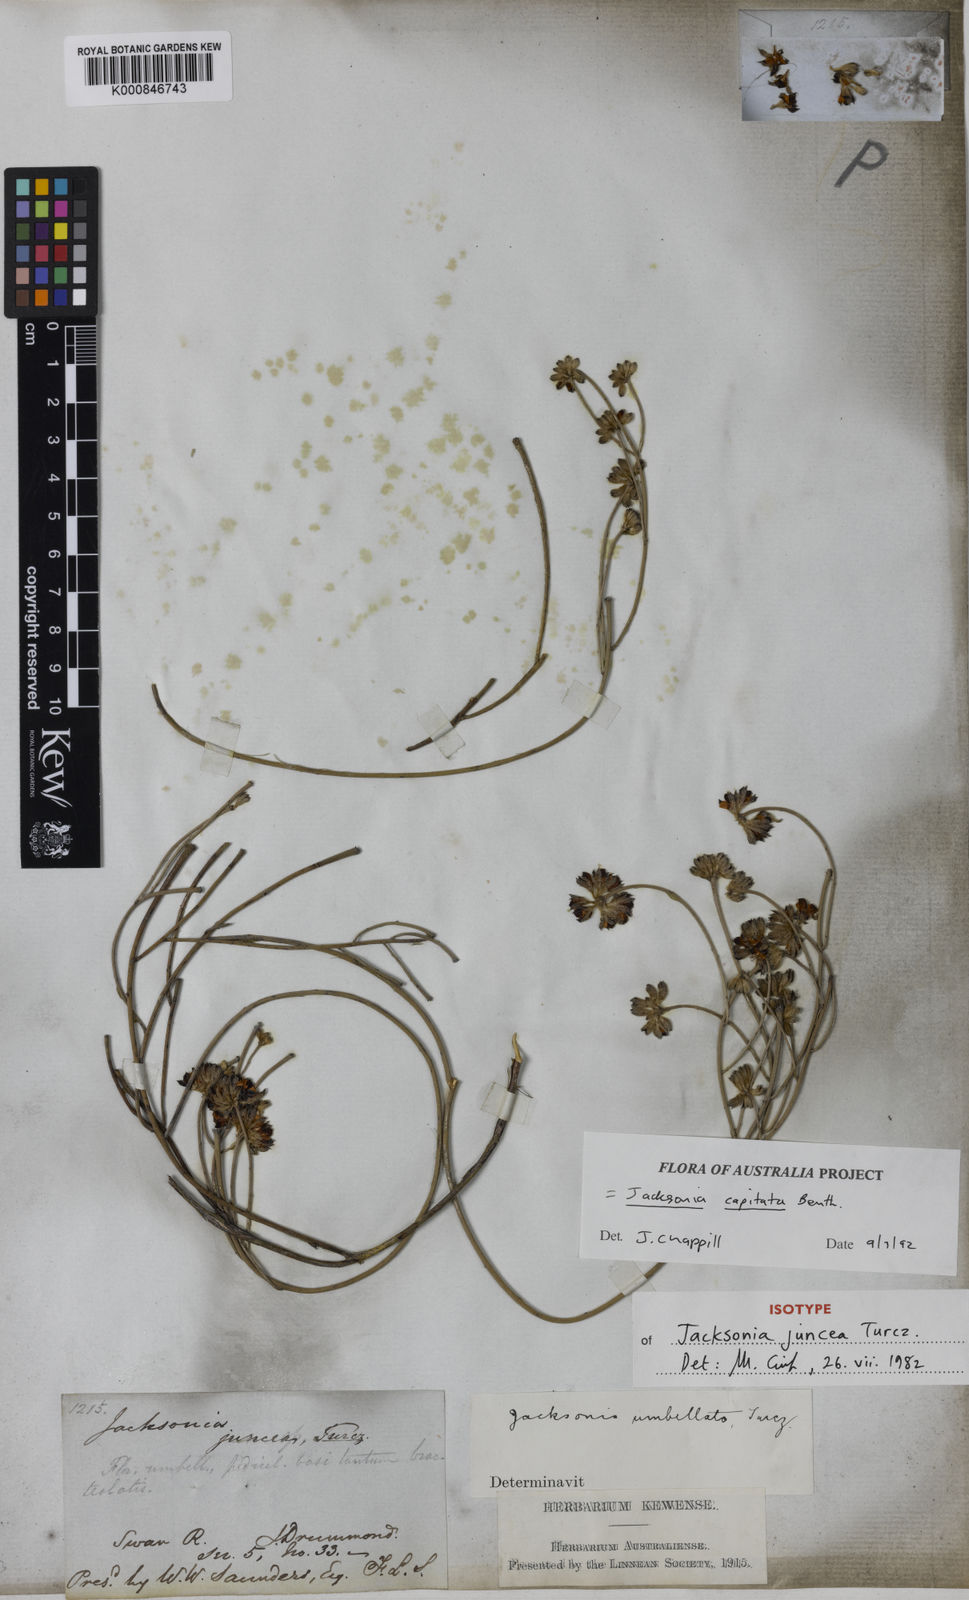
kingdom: Plantae
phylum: Tracheophyta
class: Magnoliopsida
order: Fabales
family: Fabaceae
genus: Jacksonia
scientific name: Jacksonia capitata
